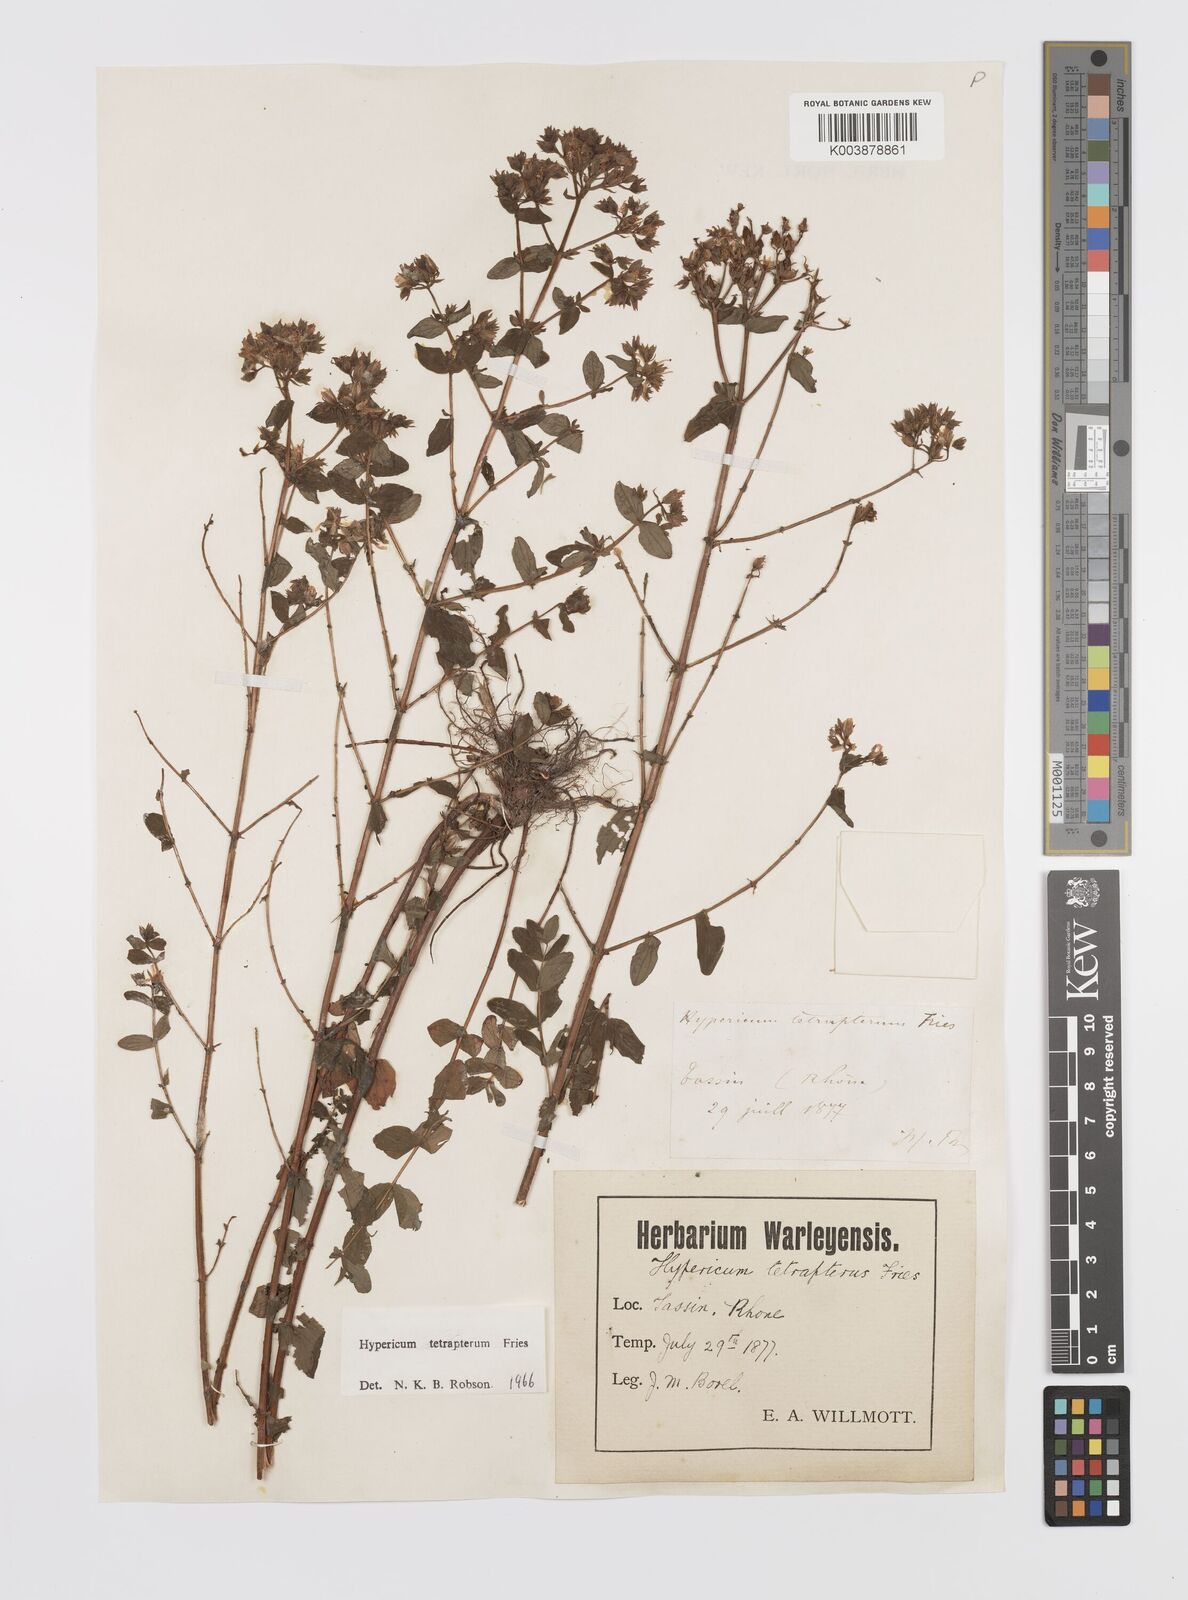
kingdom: Plantae
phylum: Tracheophyta
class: Magnoliopsida
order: Malpighiales
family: Hypericaceae
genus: Hypericum
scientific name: Hypericum tetrapterum
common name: Square-stalked st. john's-wort
